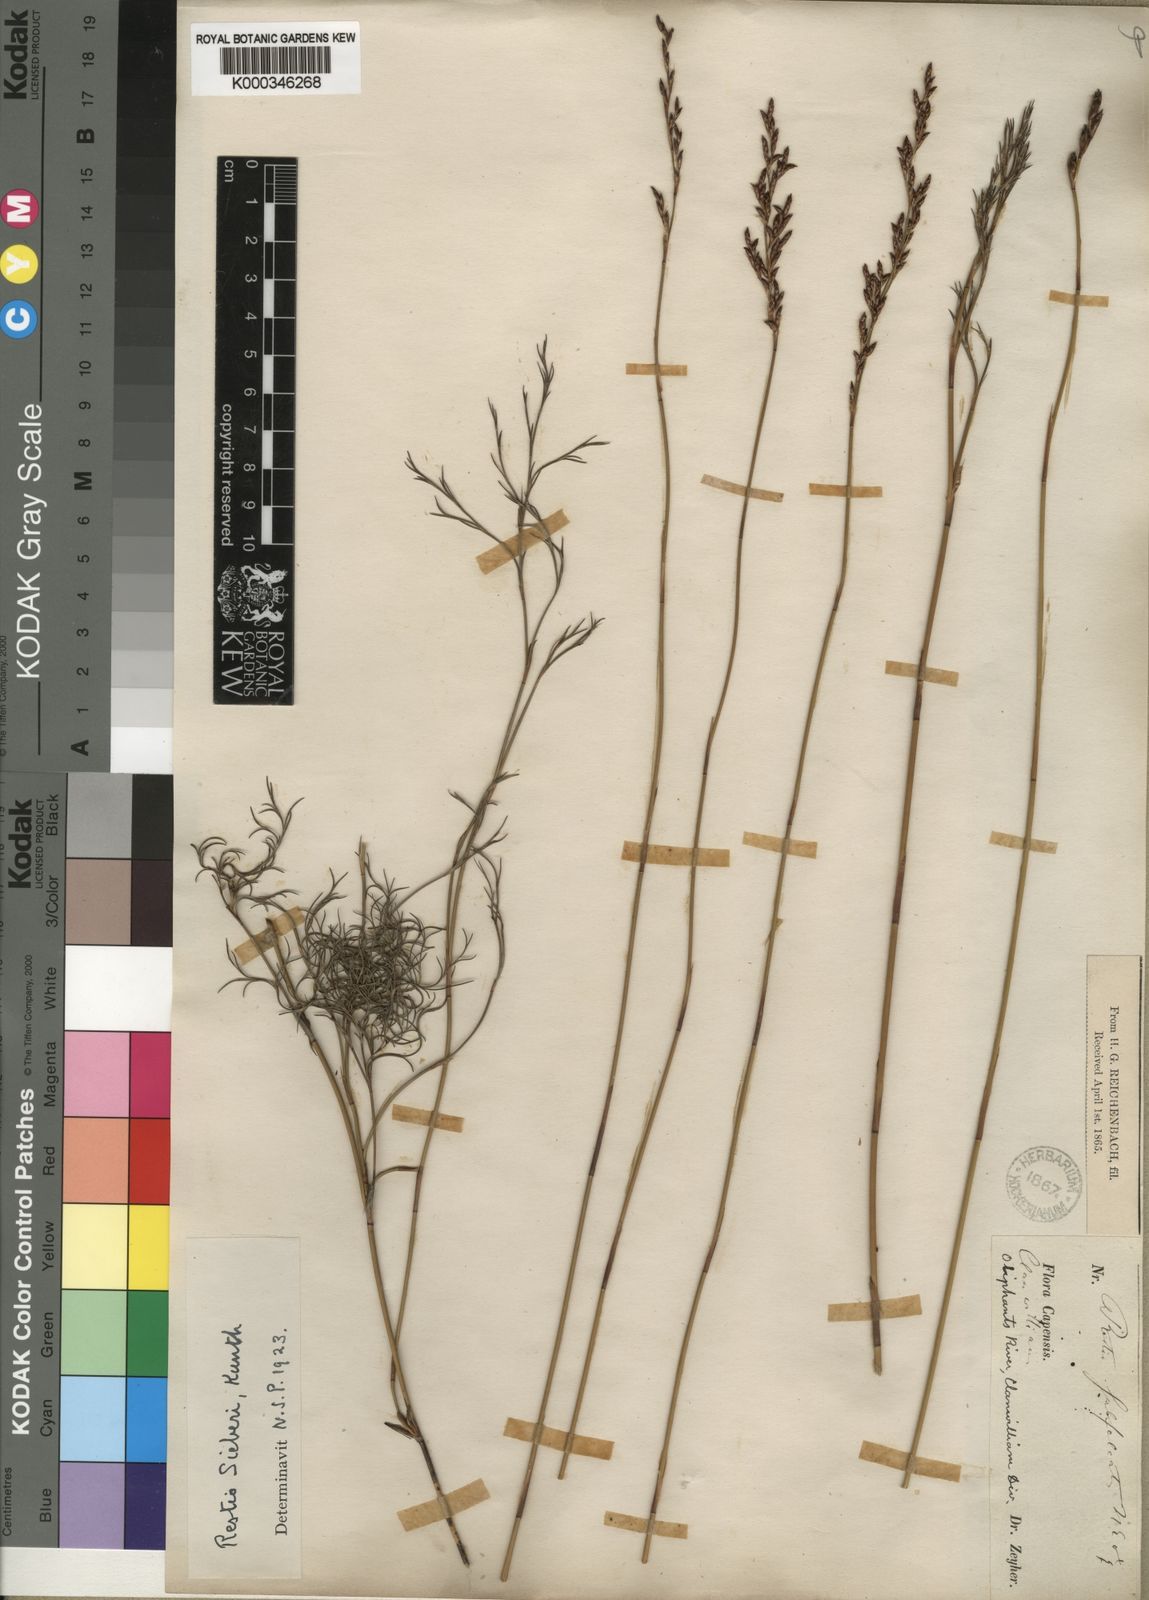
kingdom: Plantae
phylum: Tracheophyta
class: Liliopsida
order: Poales
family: Restionaceae
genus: Restio
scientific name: Restio sieberi
